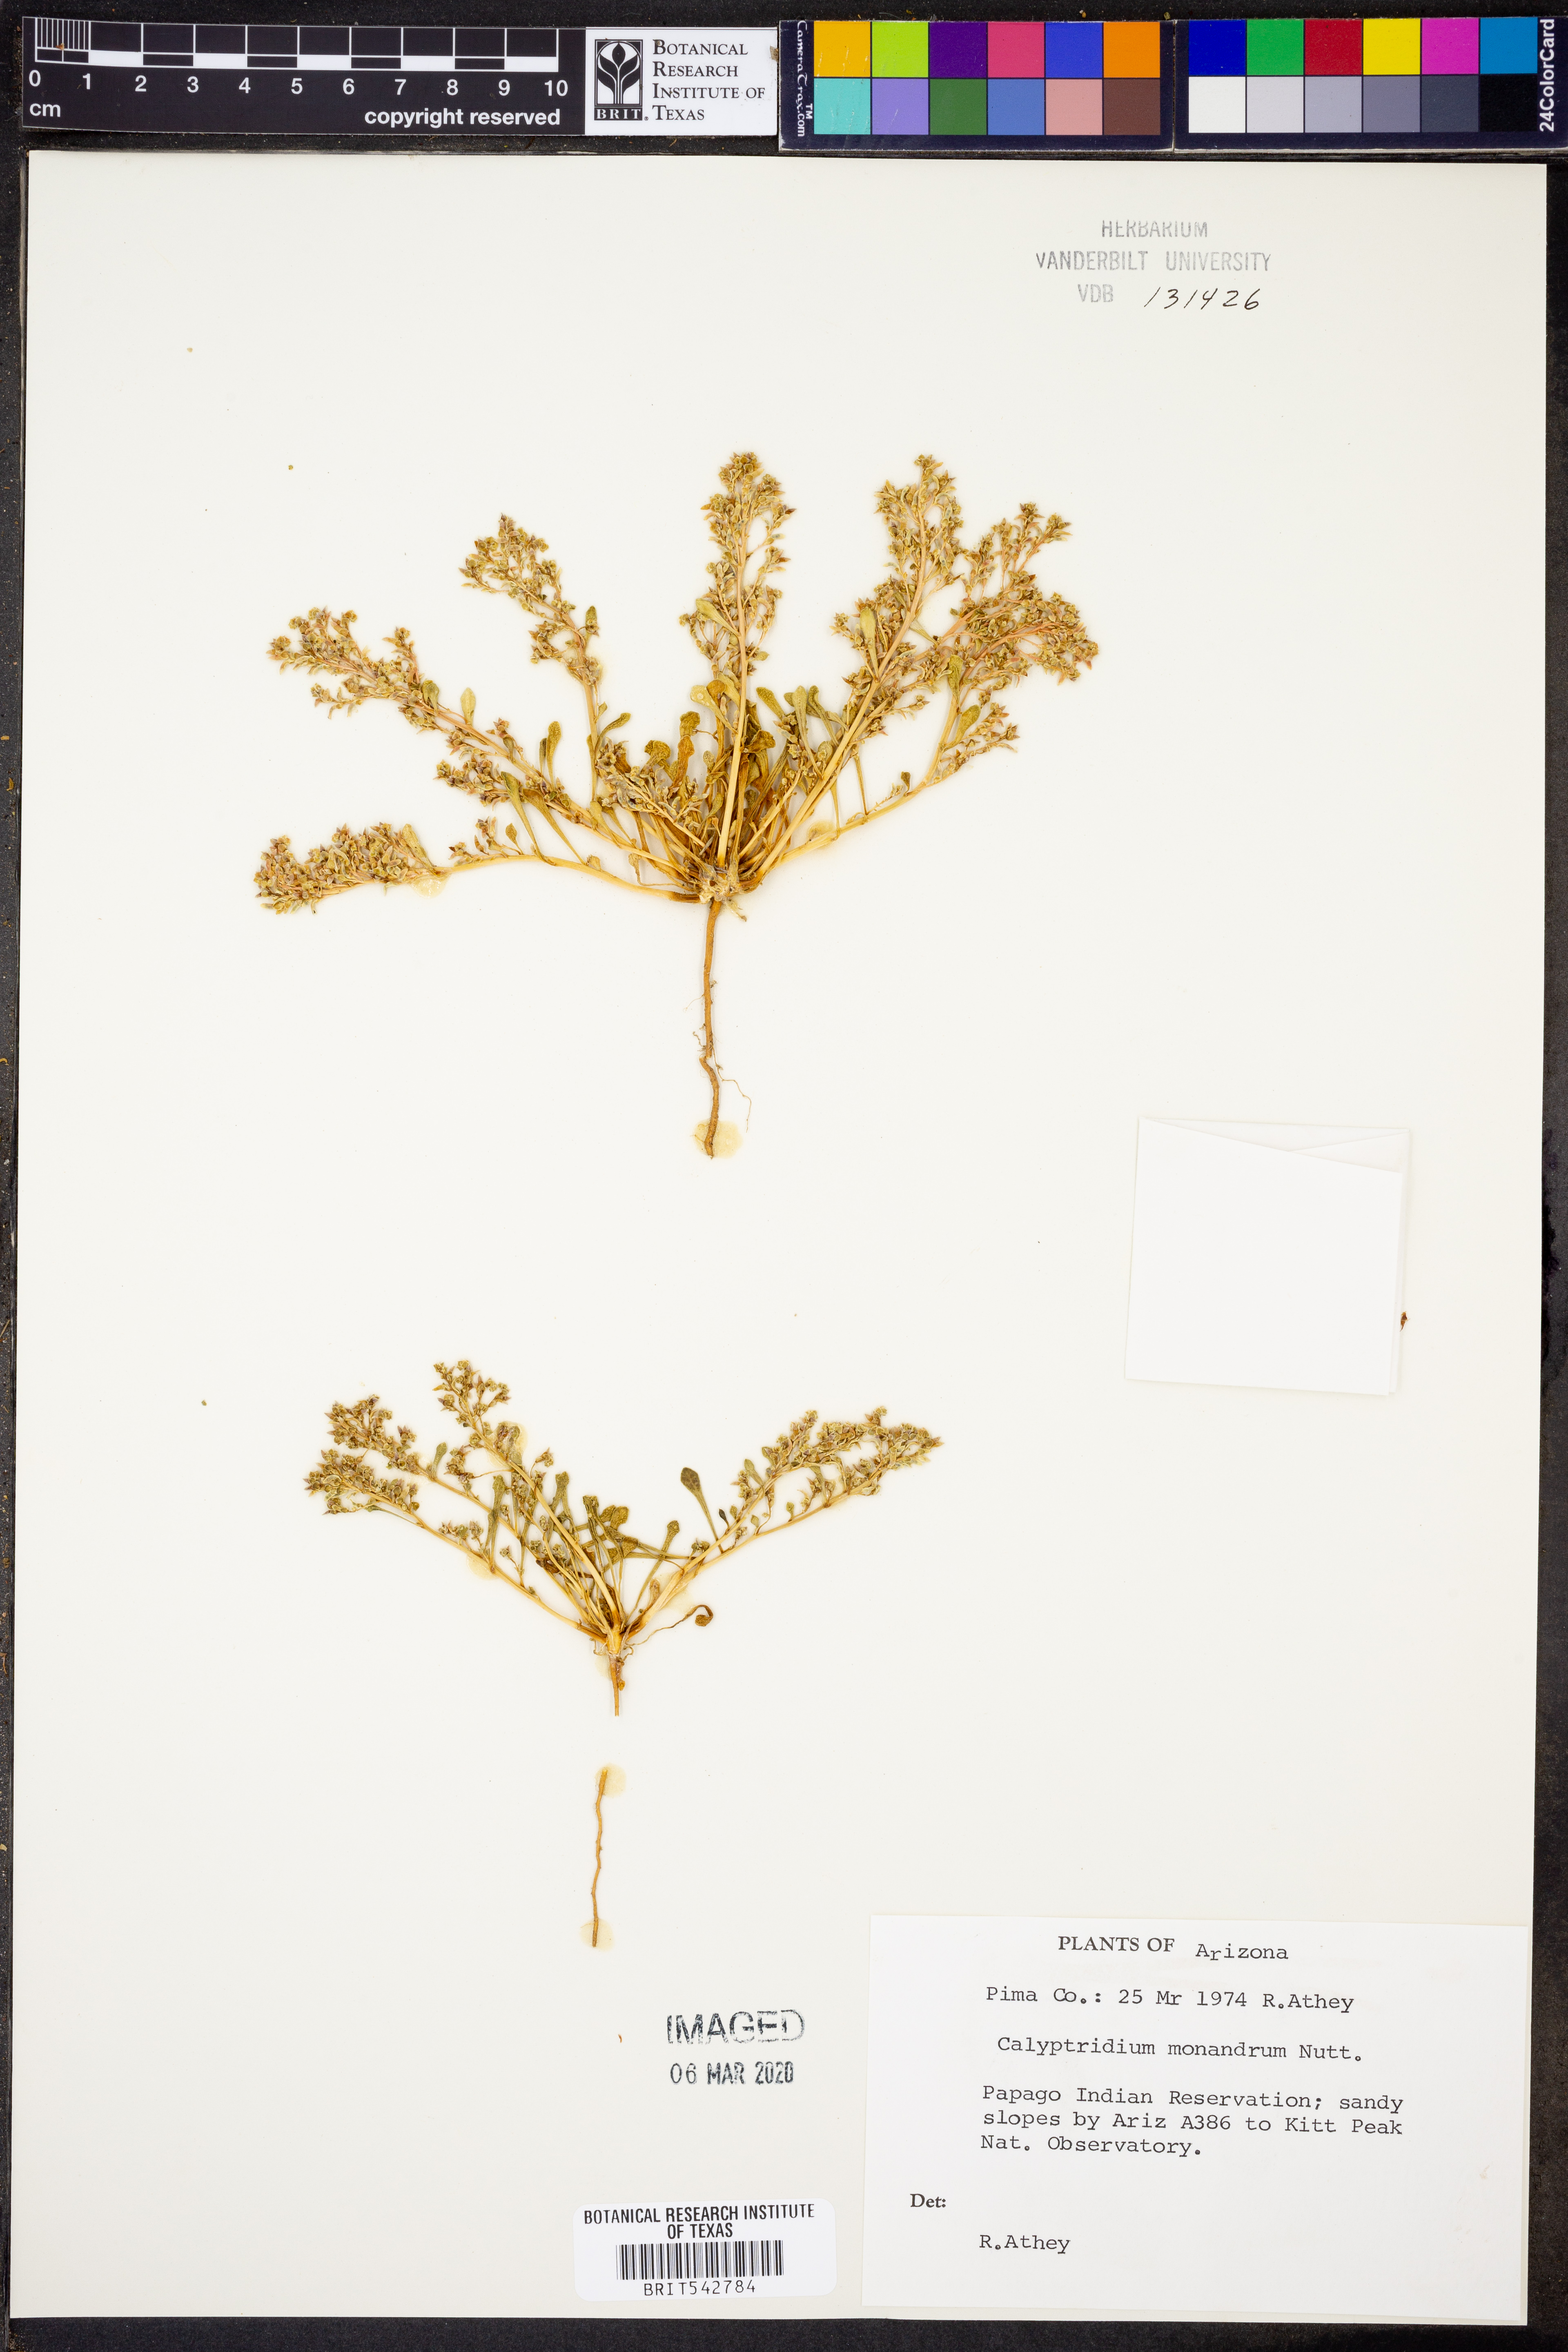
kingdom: Plantae
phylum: Tracheophyta
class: Magnoliopsida
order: Caryophyllales
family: Montiaceae
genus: Calyptridium
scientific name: Calyptridium monandrum
